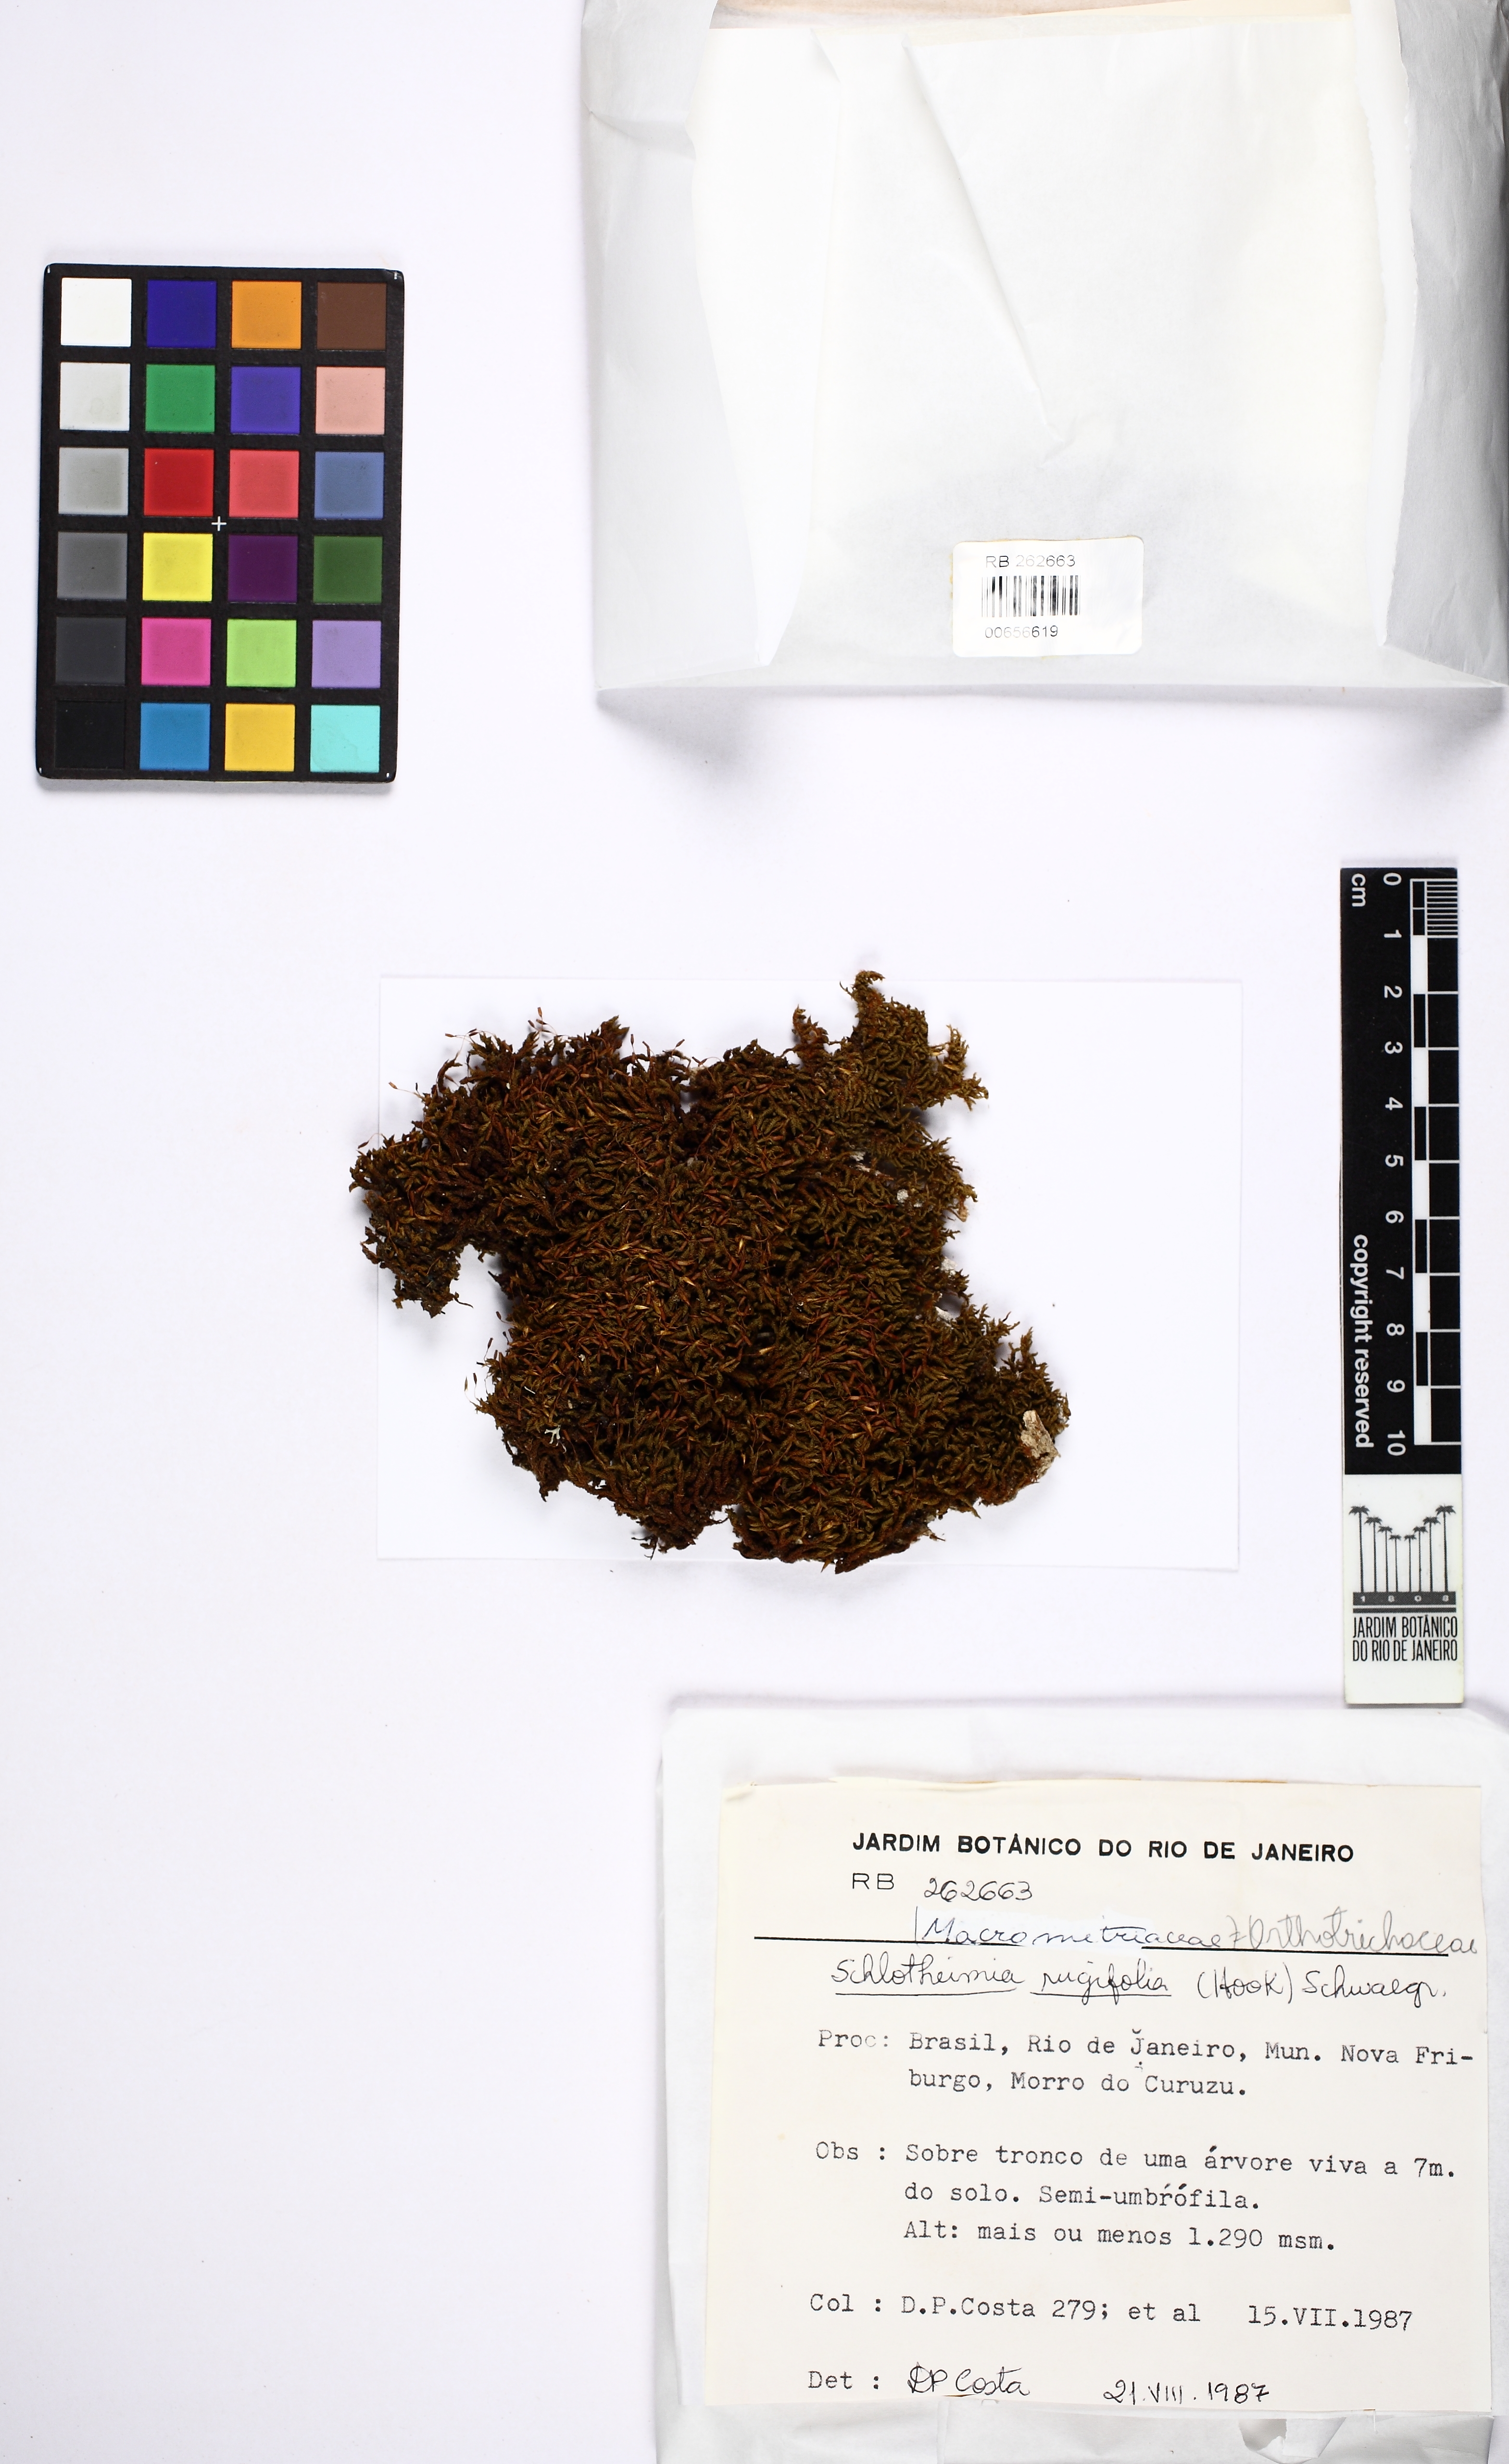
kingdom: Plantae
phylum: Bryophyta
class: Bryopsida
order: Orthotrichales
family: Orthotrichaceae
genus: Schlotheimia
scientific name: Schlotheimia torquata
